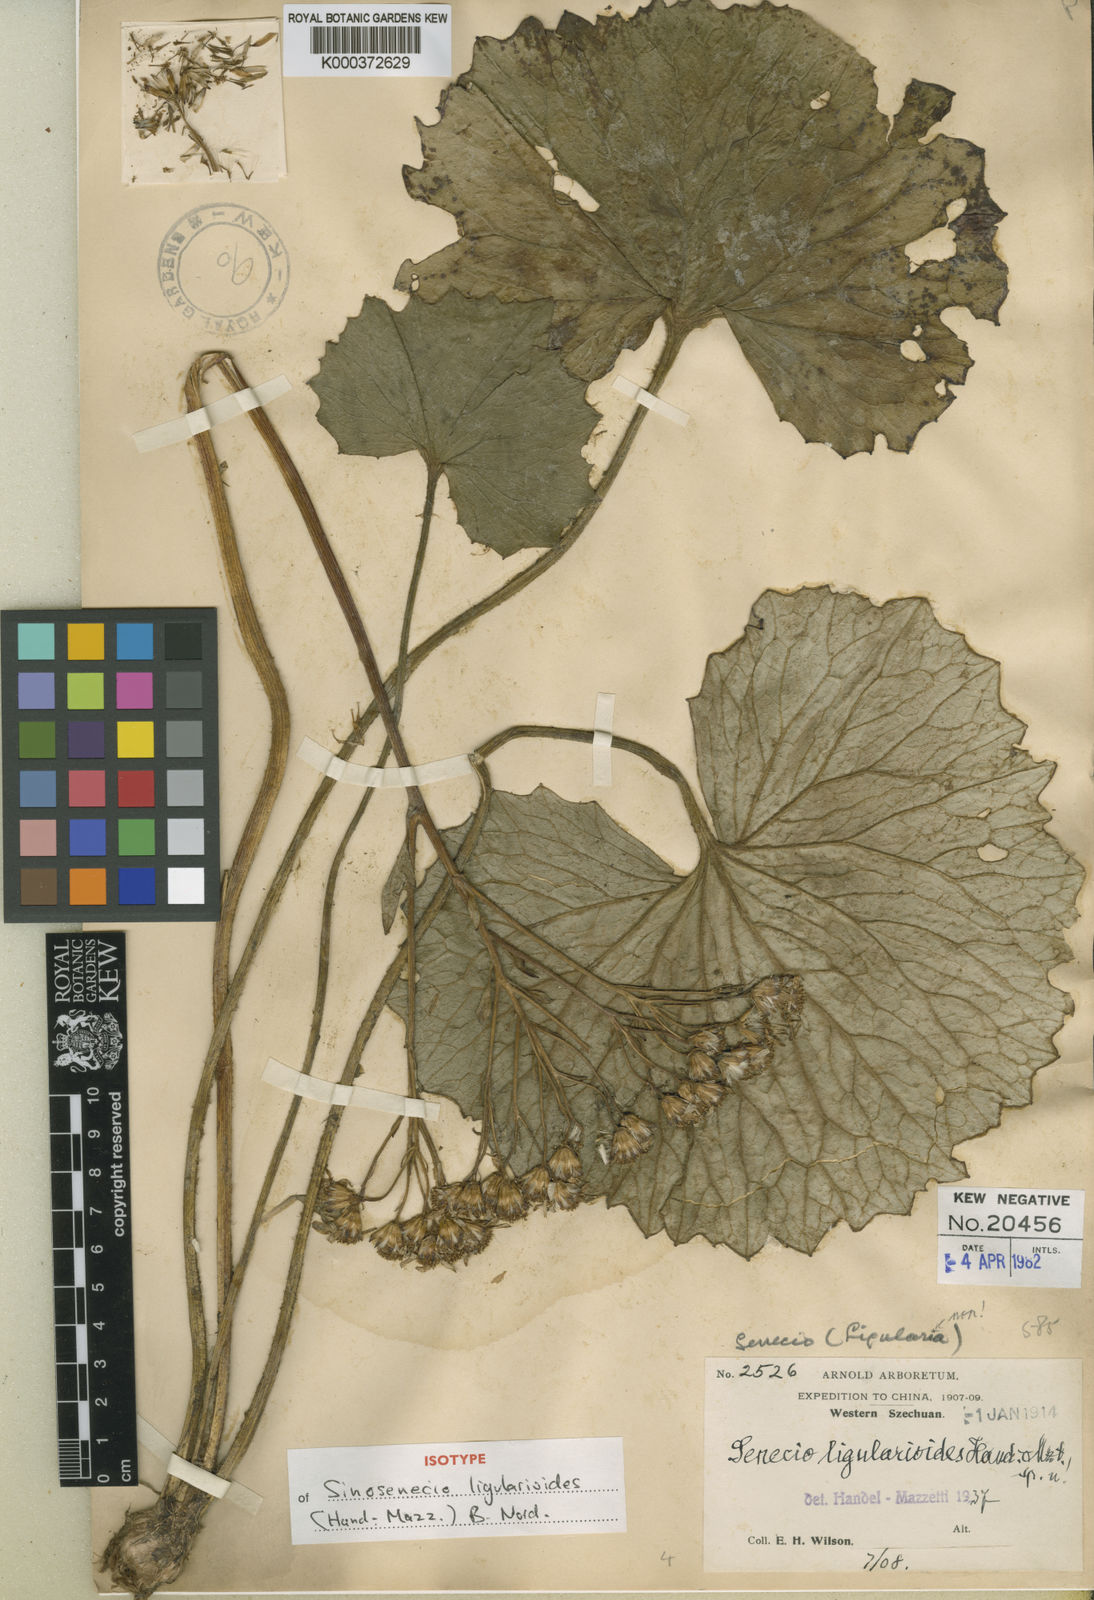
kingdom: Plantae
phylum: Tracheophyta
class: Magnoliopsida
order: Asterales
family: Asteraceae
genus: Sinosenecio
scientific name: Sinosenecio
